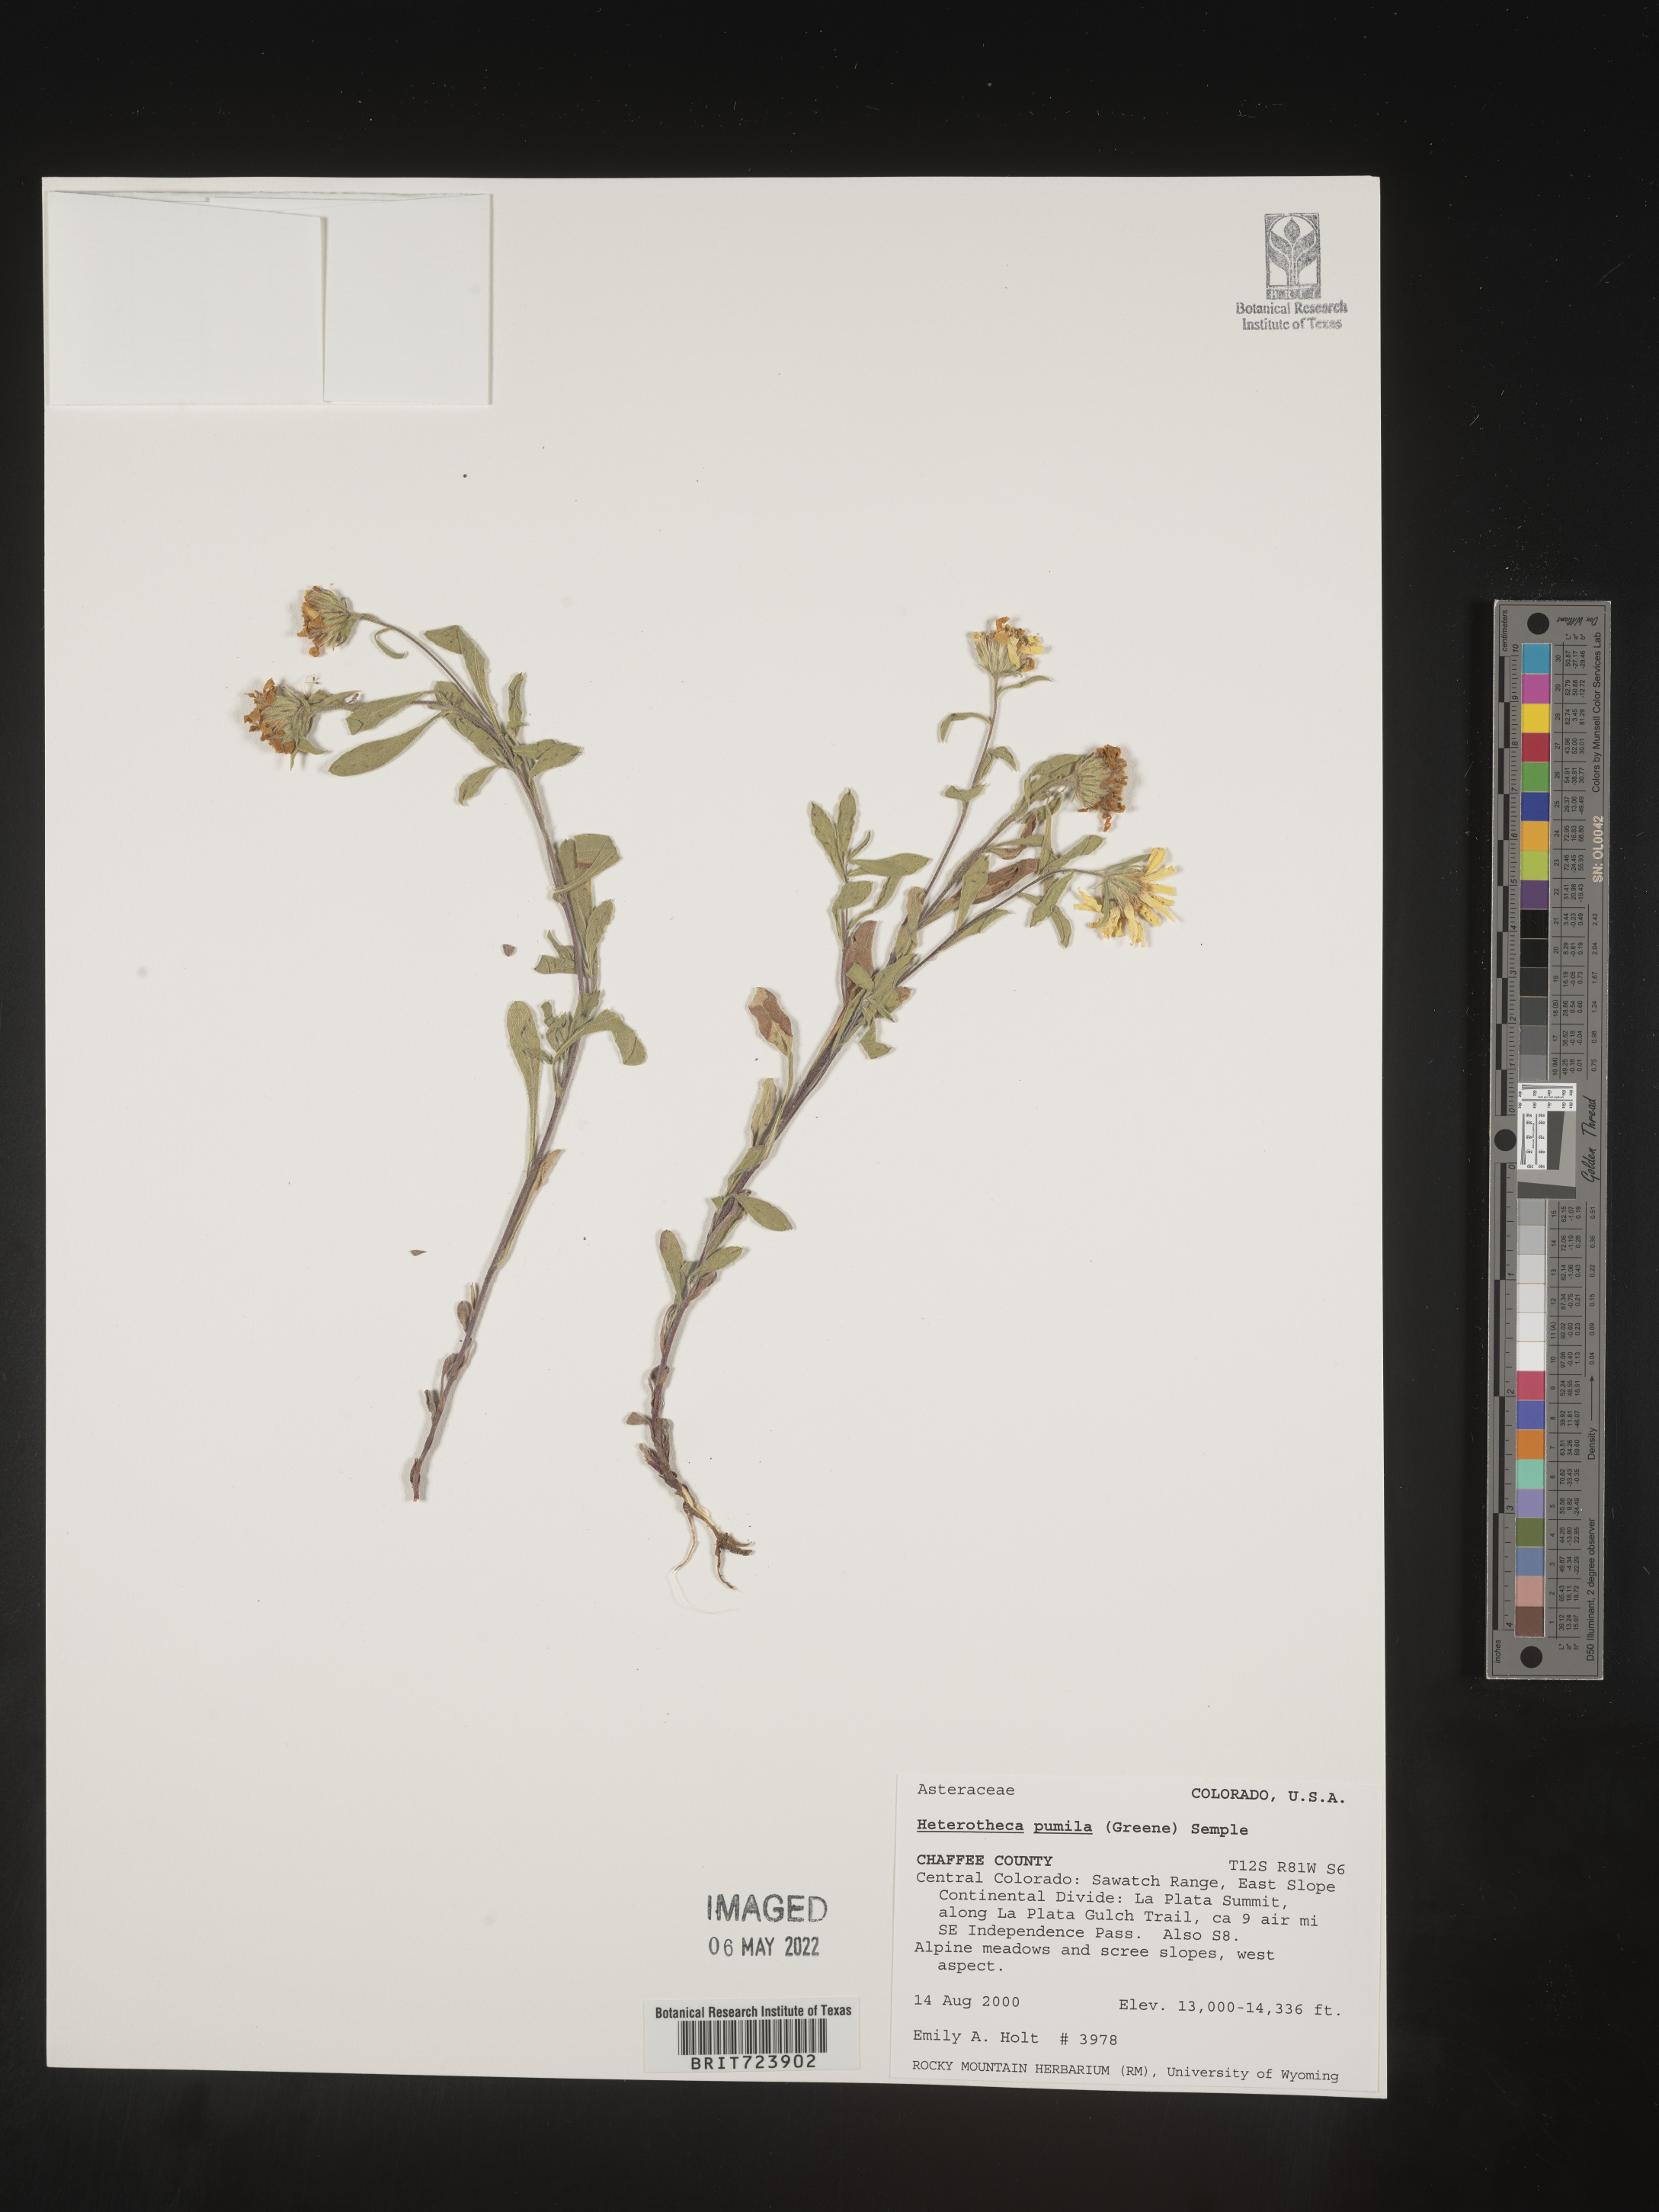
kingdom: Plantae
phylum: Tracheophyta
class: Magnoliopsida
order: Asterales
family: Asteraceae
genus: Heterotheca
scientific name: Heterotheca pumila
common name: Alpine golden-aster
